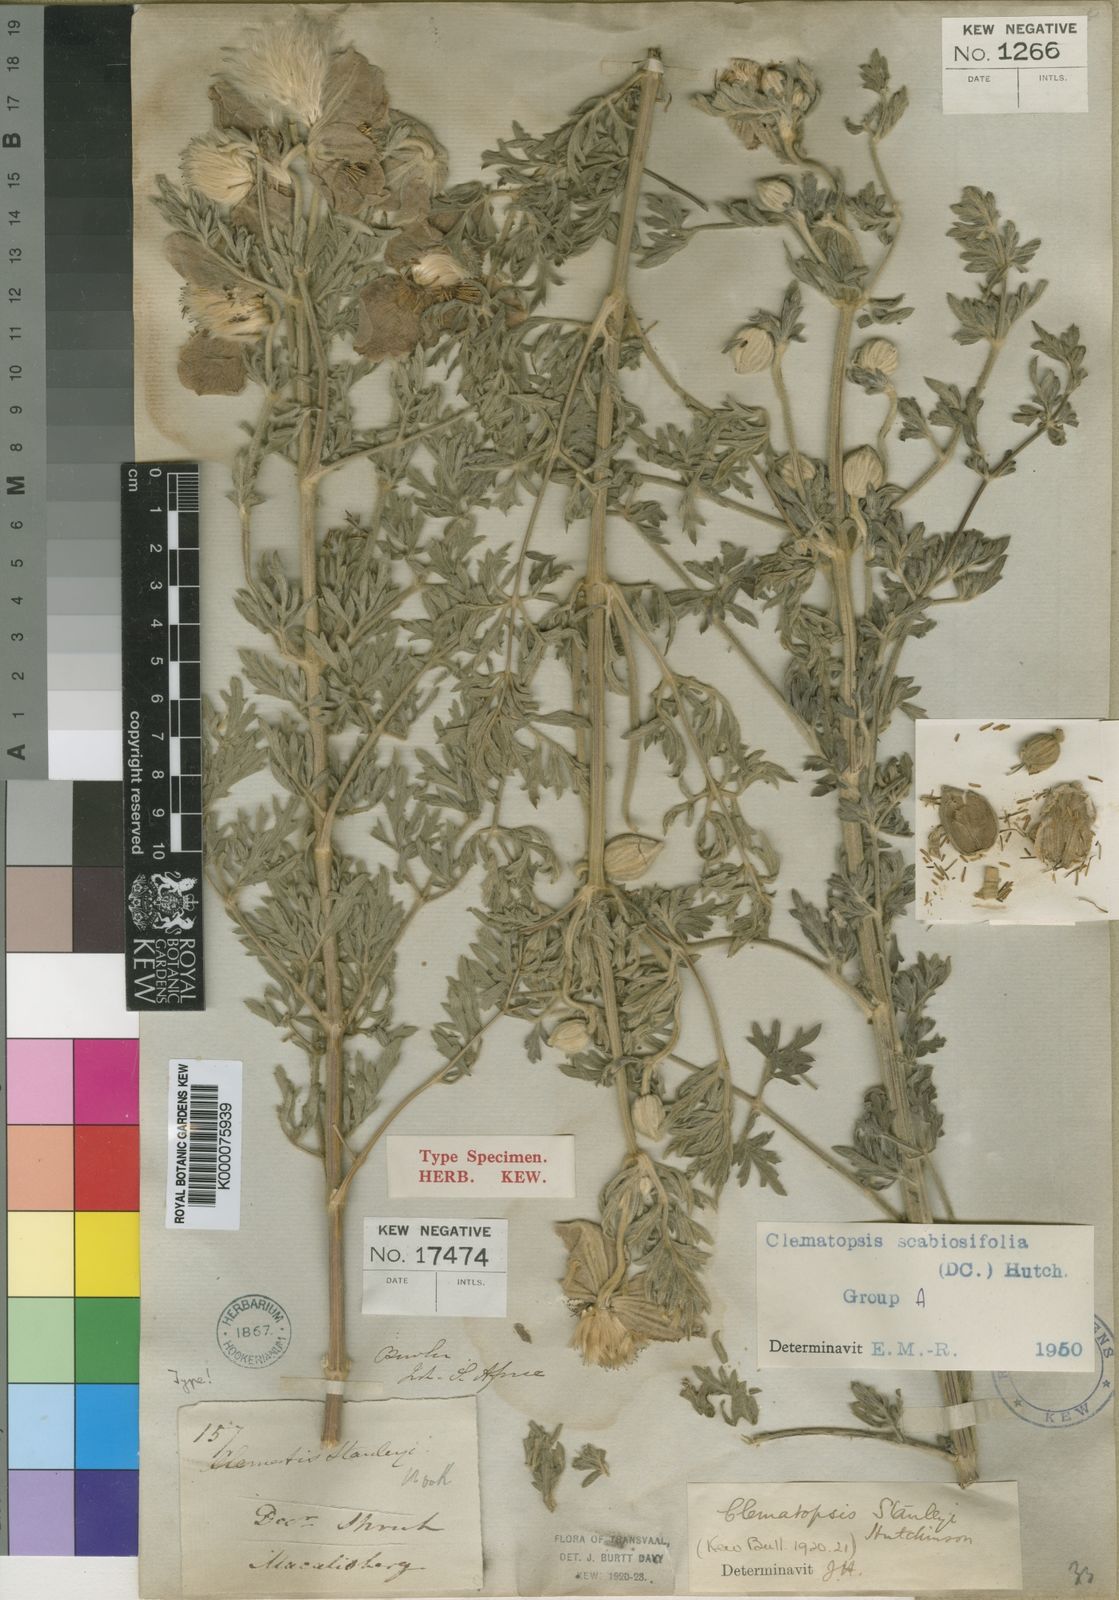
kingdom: Plantae
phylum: Tracheophyta
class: Magnoliopsida
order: Ranunculales
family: Ranunculaceae
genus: Clematis
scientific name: Clematis villosa
